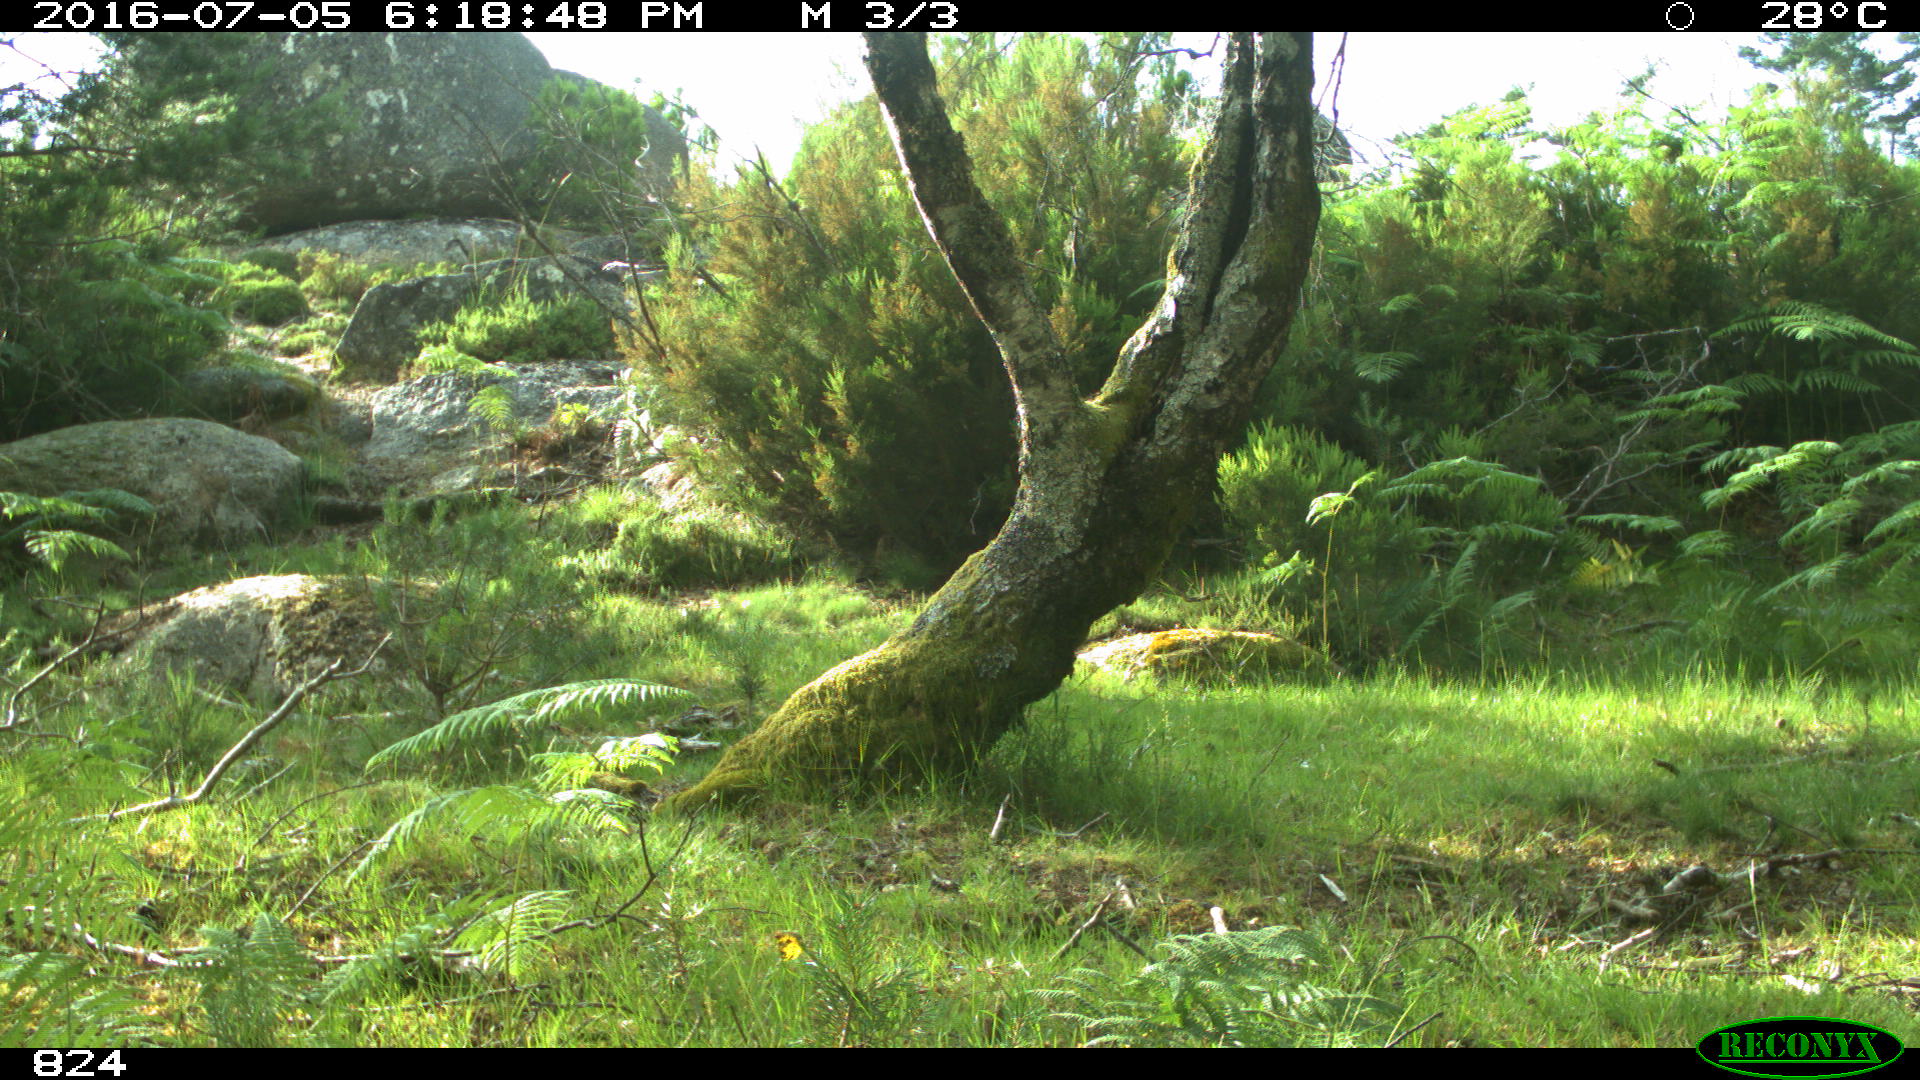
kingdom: Animalia
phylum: Chordata
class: Mammalia
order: Perissodactyla
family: Equidae
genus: Equus
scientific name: Equus caballus
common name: Horse
